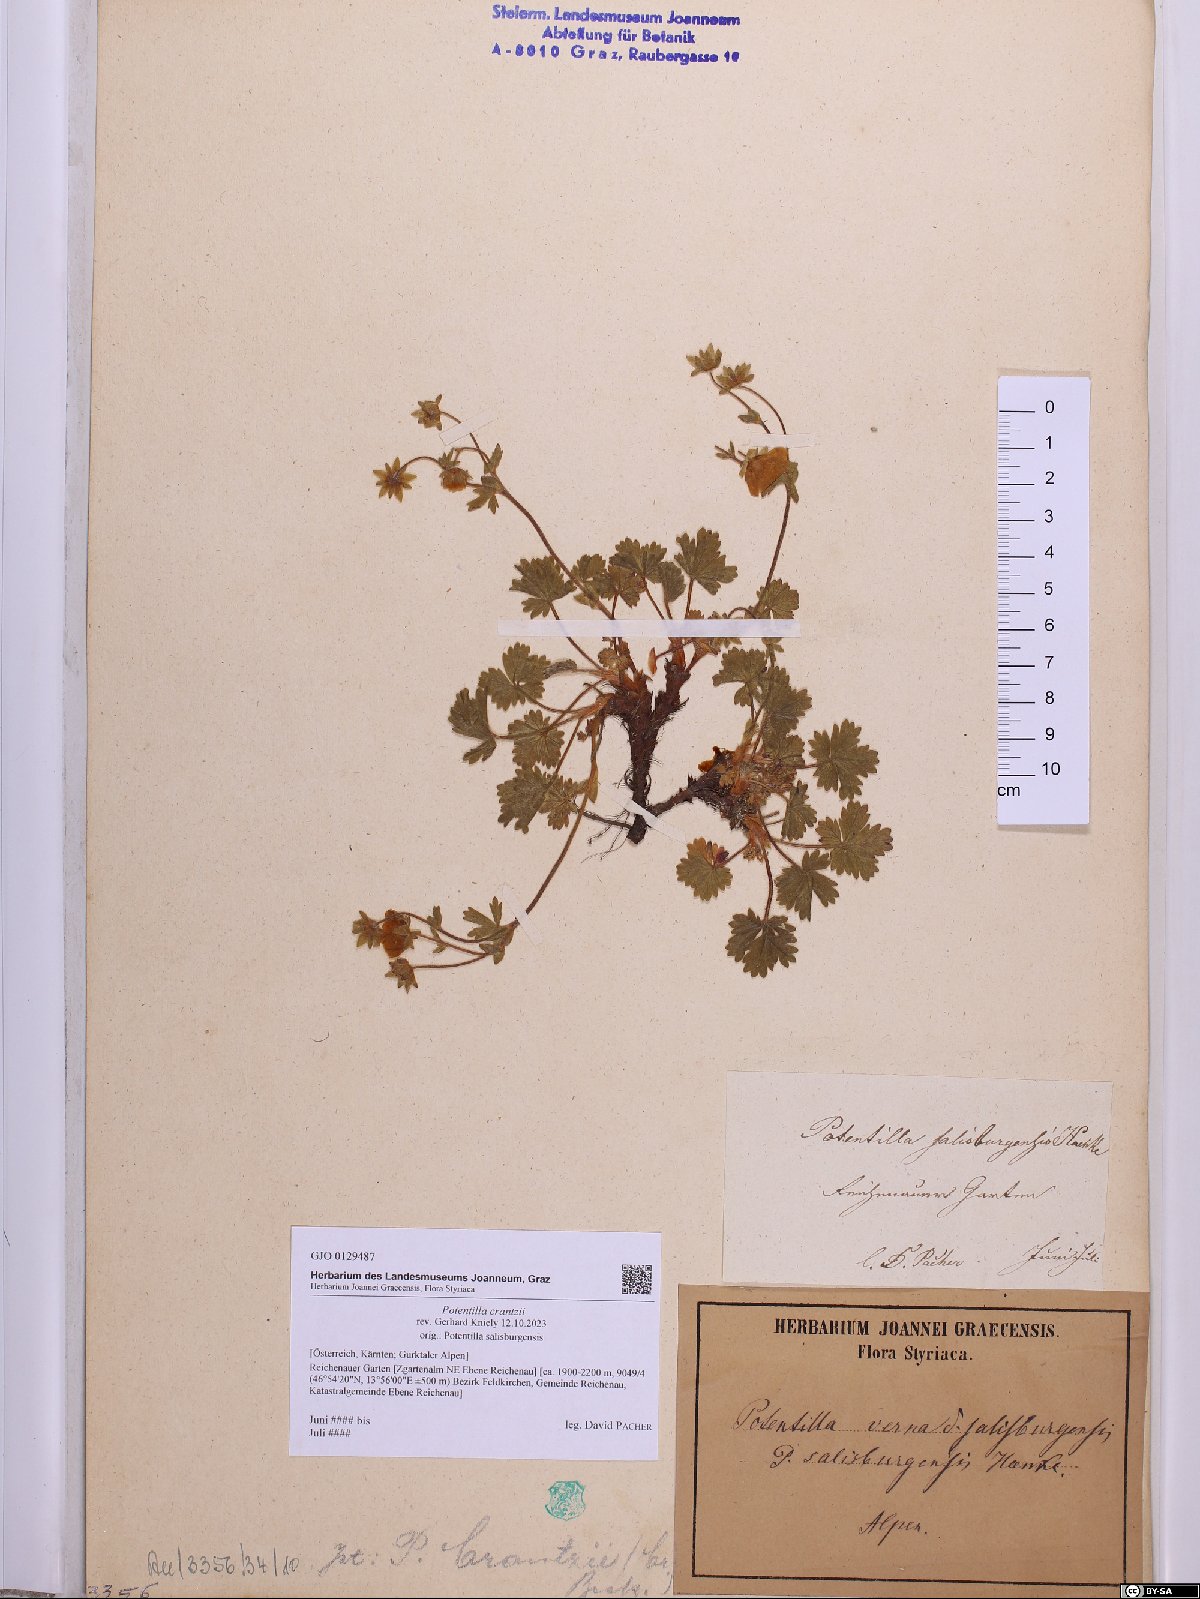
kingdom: Plantae
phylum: Tracheophyta
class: Magnoliopsida
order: Rosales
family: Rosaceae
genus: Potentilla
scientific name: Potentilla crantzii
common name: Alpine cinquefoil
